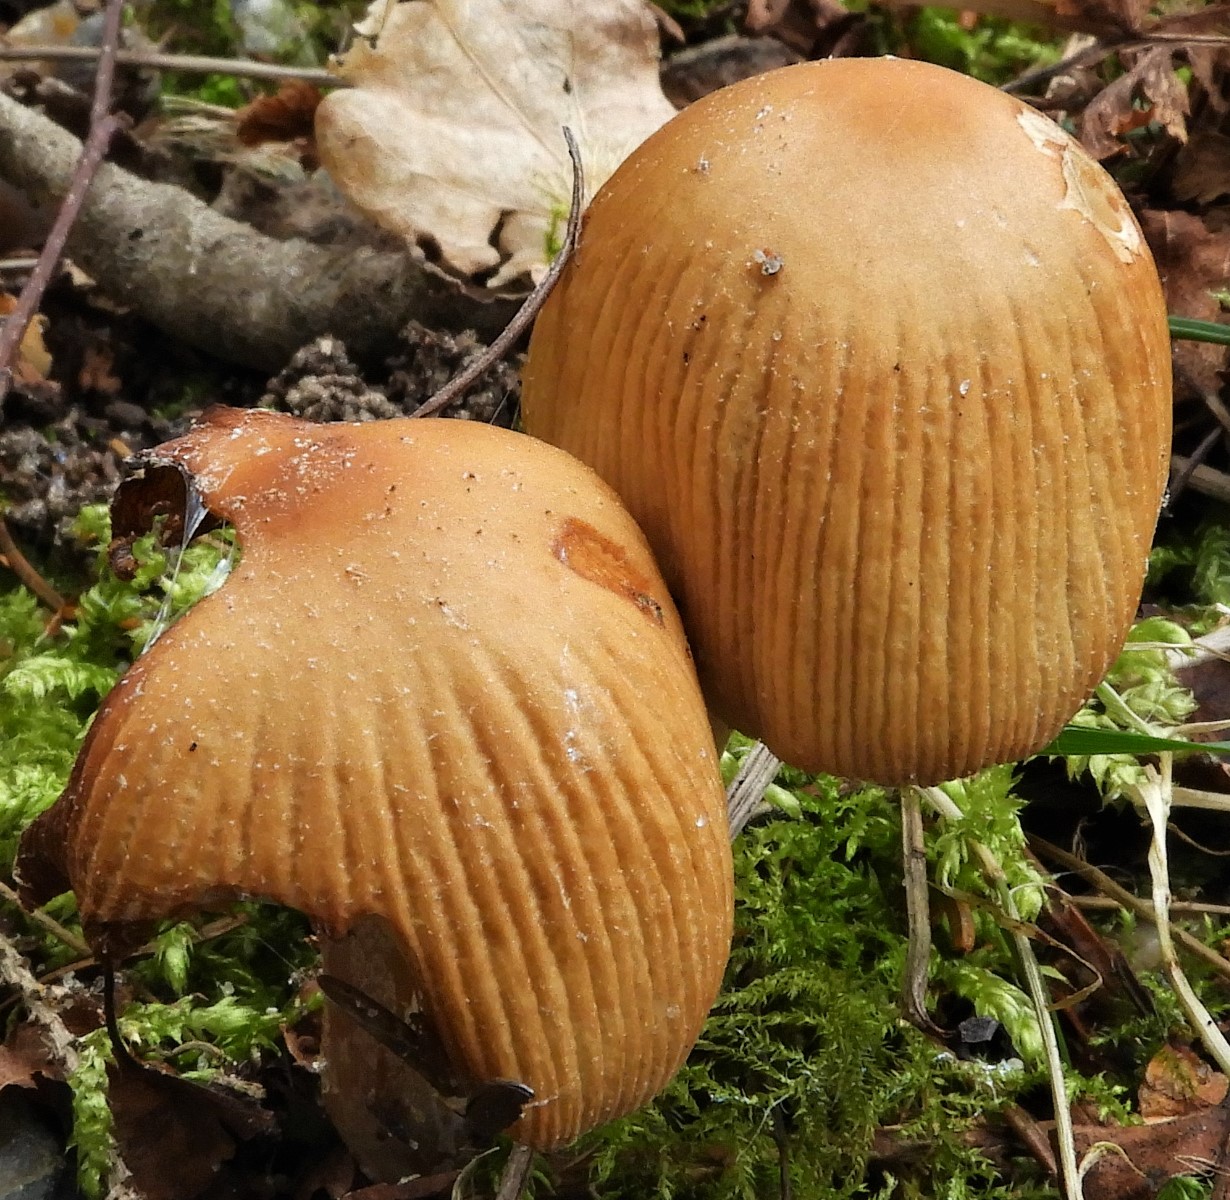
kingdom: Fungi
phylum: Basidiomycota
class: Agaricomycetes
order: Agaricales
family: Psathyrellaceae
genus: Coprinellus
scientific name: Coprinellus micaceus
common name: glimmer-blækhat
